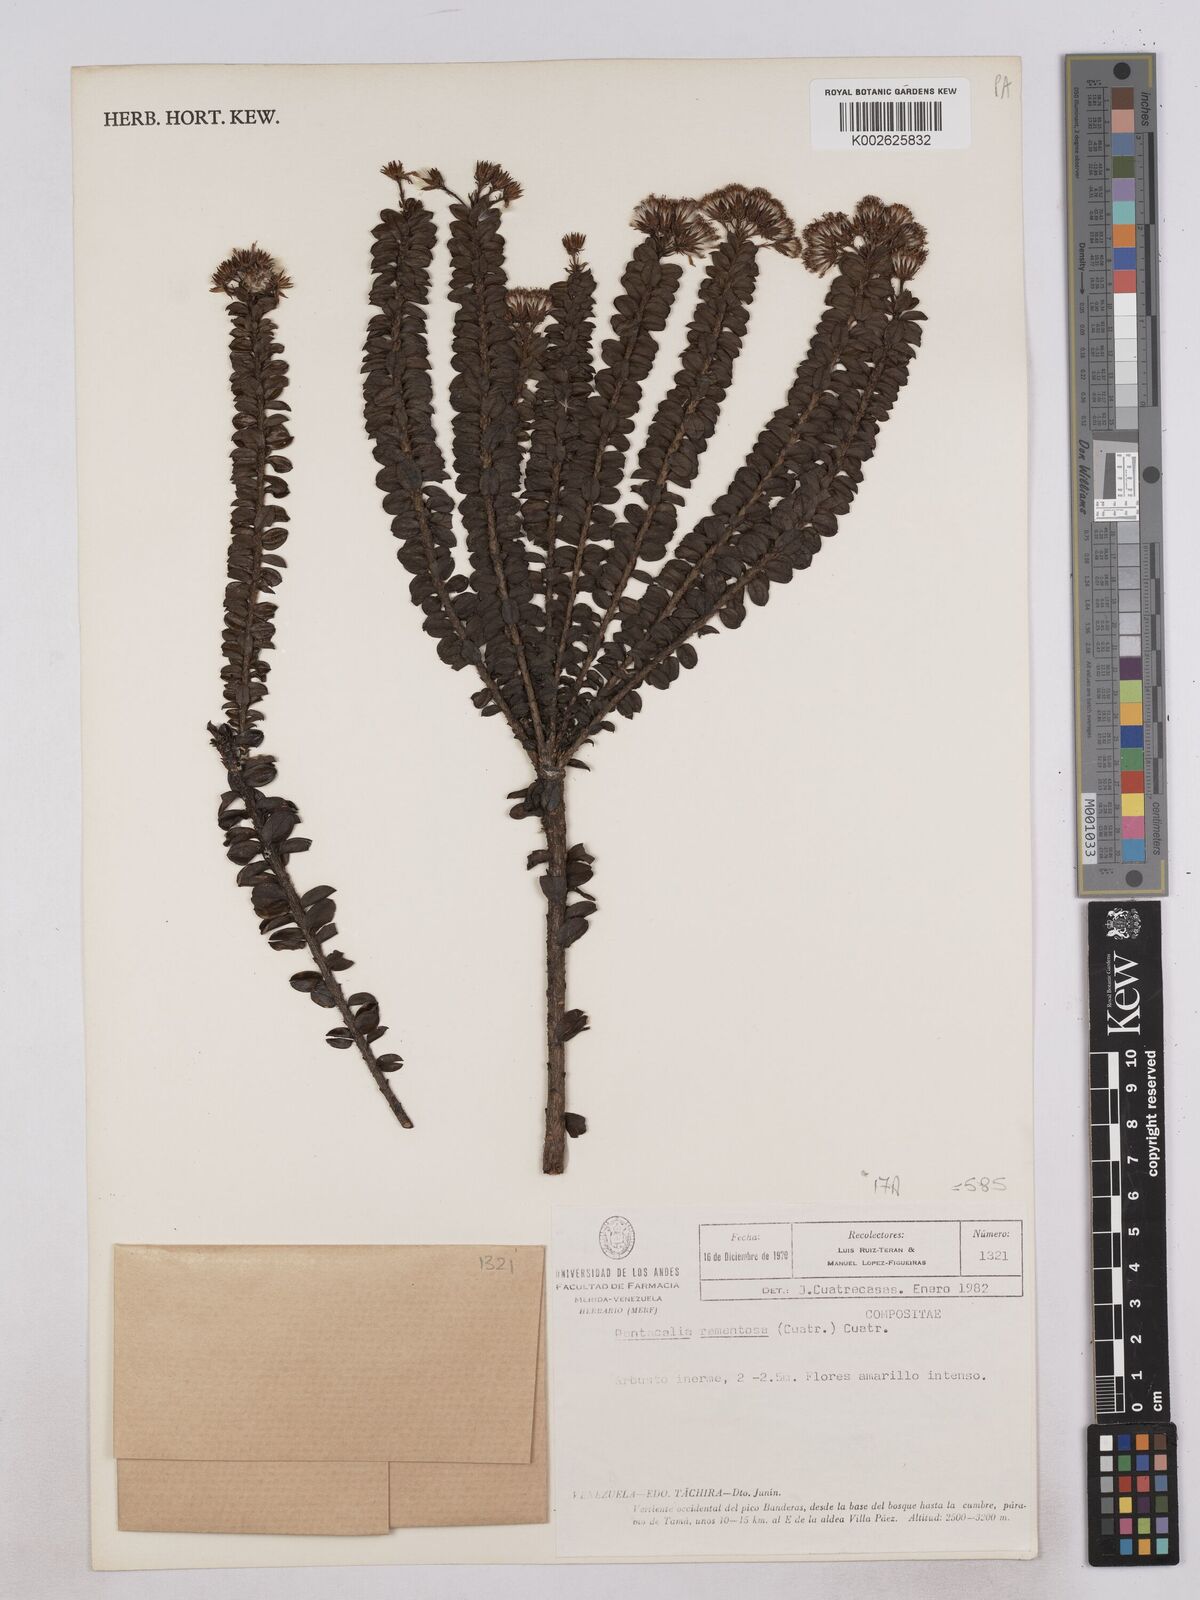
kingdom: Plantae
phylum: Tracheophyta
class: Magnoliopsida
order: Asterales
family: Asteraceae
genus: Monticalia
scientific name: Monticalia ramentosa
